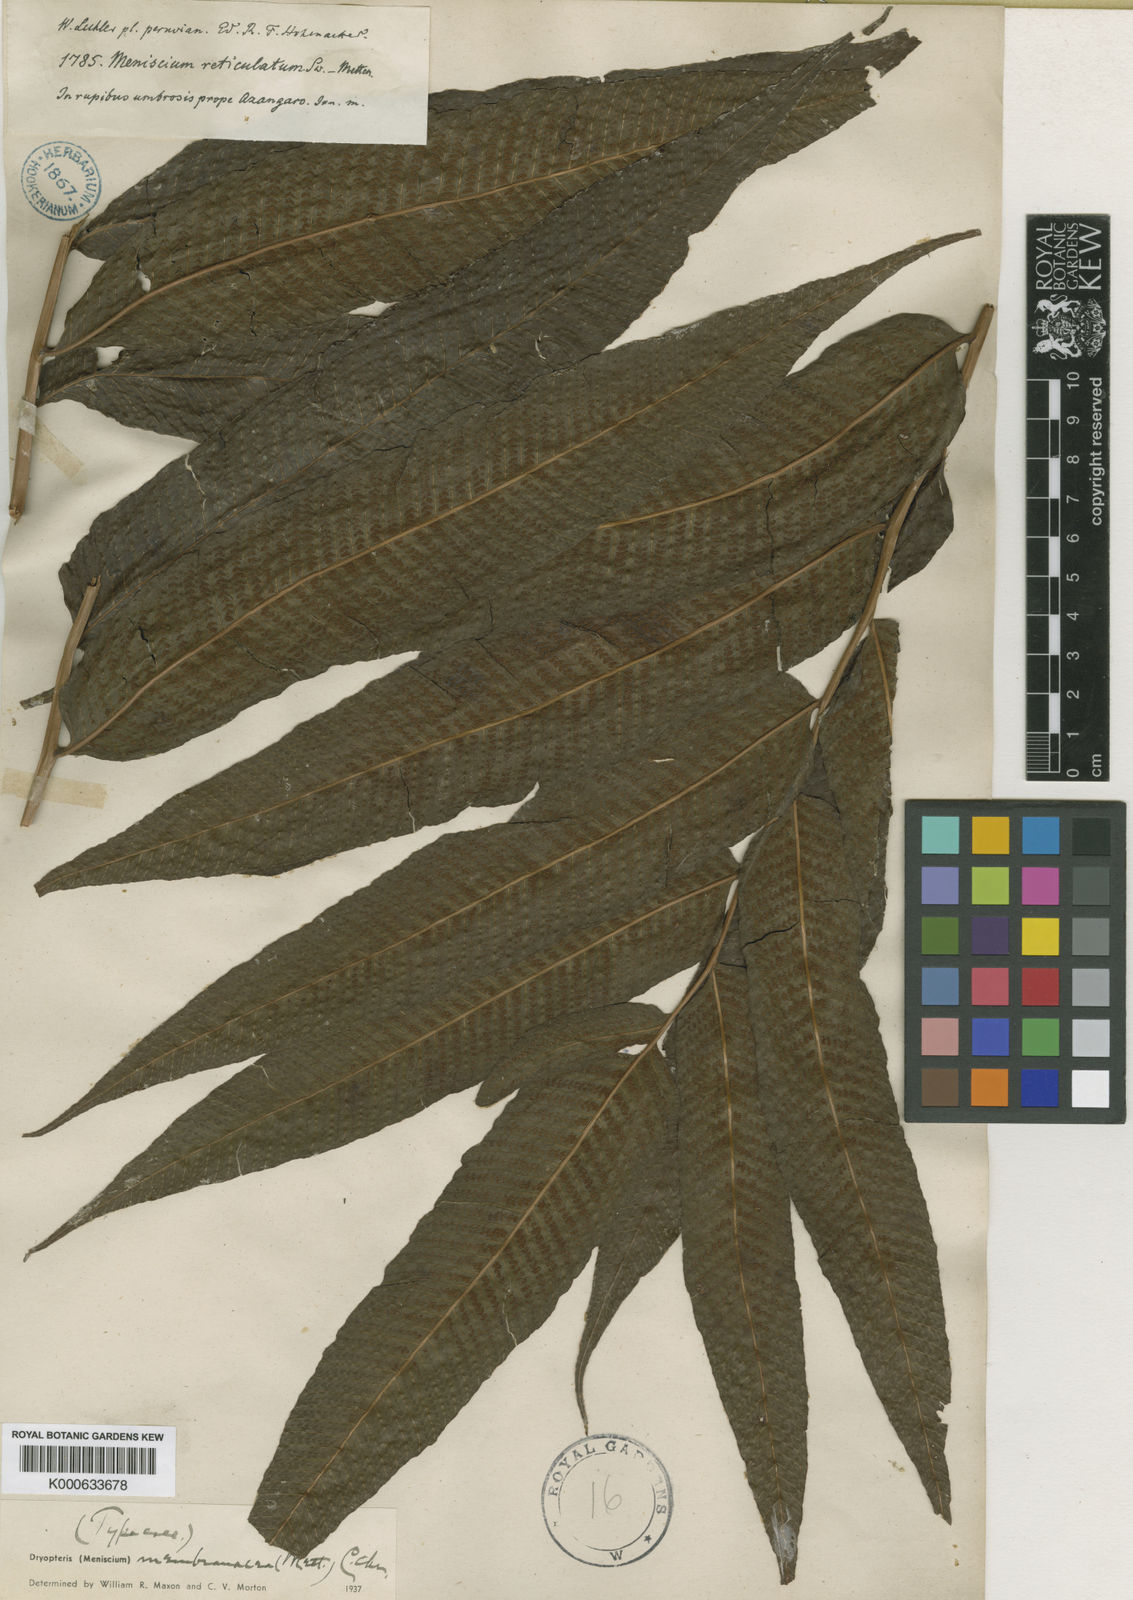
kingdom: Plantae
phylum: Tracheophyta
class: Polypodiopsida
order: Polypodiales
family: Thelypteridaceae
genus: Meniscium
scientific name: Meniscium membranaceum
